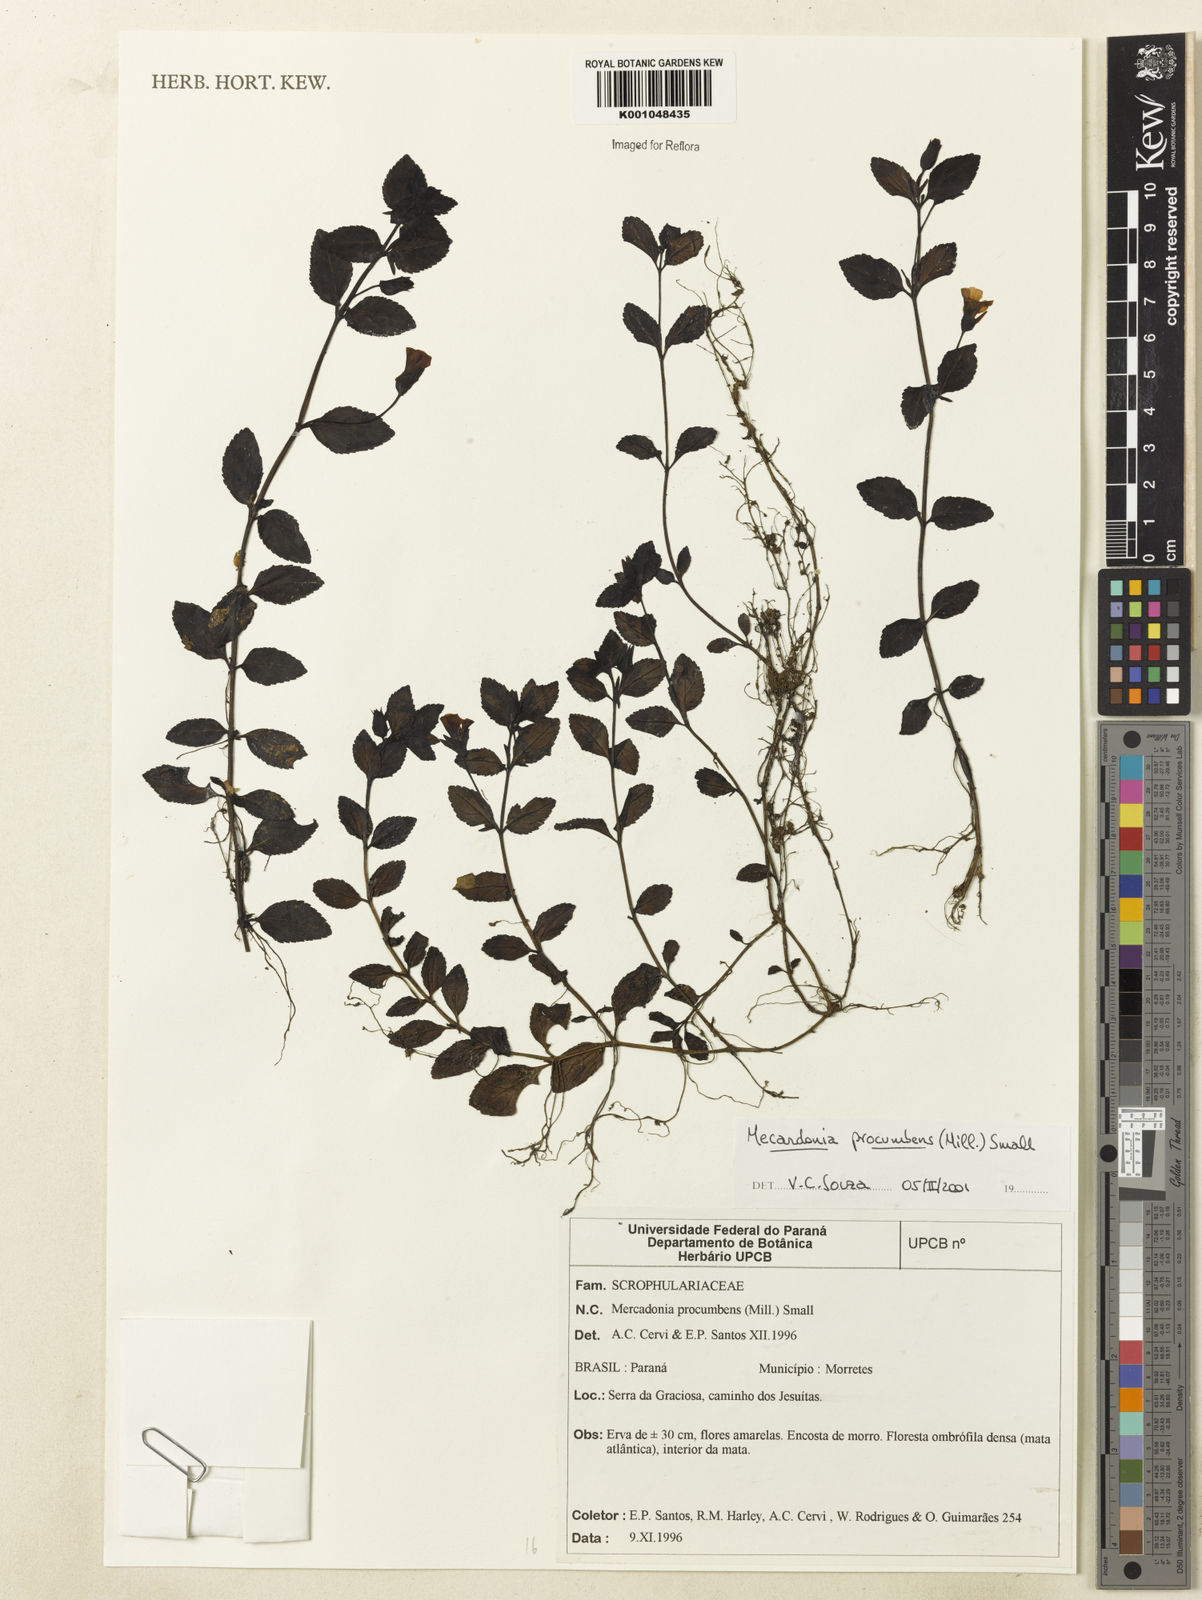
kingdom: Plantae
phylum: Tracheophyta
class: Magnoliopsida
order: Lamiales
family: Plantaginaceae
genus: Mecardonia
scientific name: Mecardonia procumbens
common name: Baby jump-up
